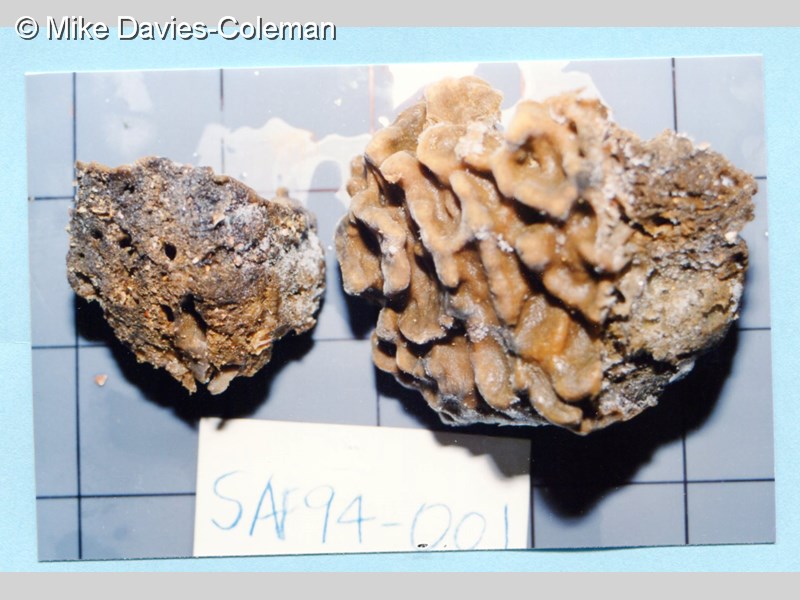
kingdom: Animalia
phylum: Porifera
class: Demospongiae
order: Clionaida
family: Spirastrellidae
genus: Spirastrella
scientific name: Spirastrella
